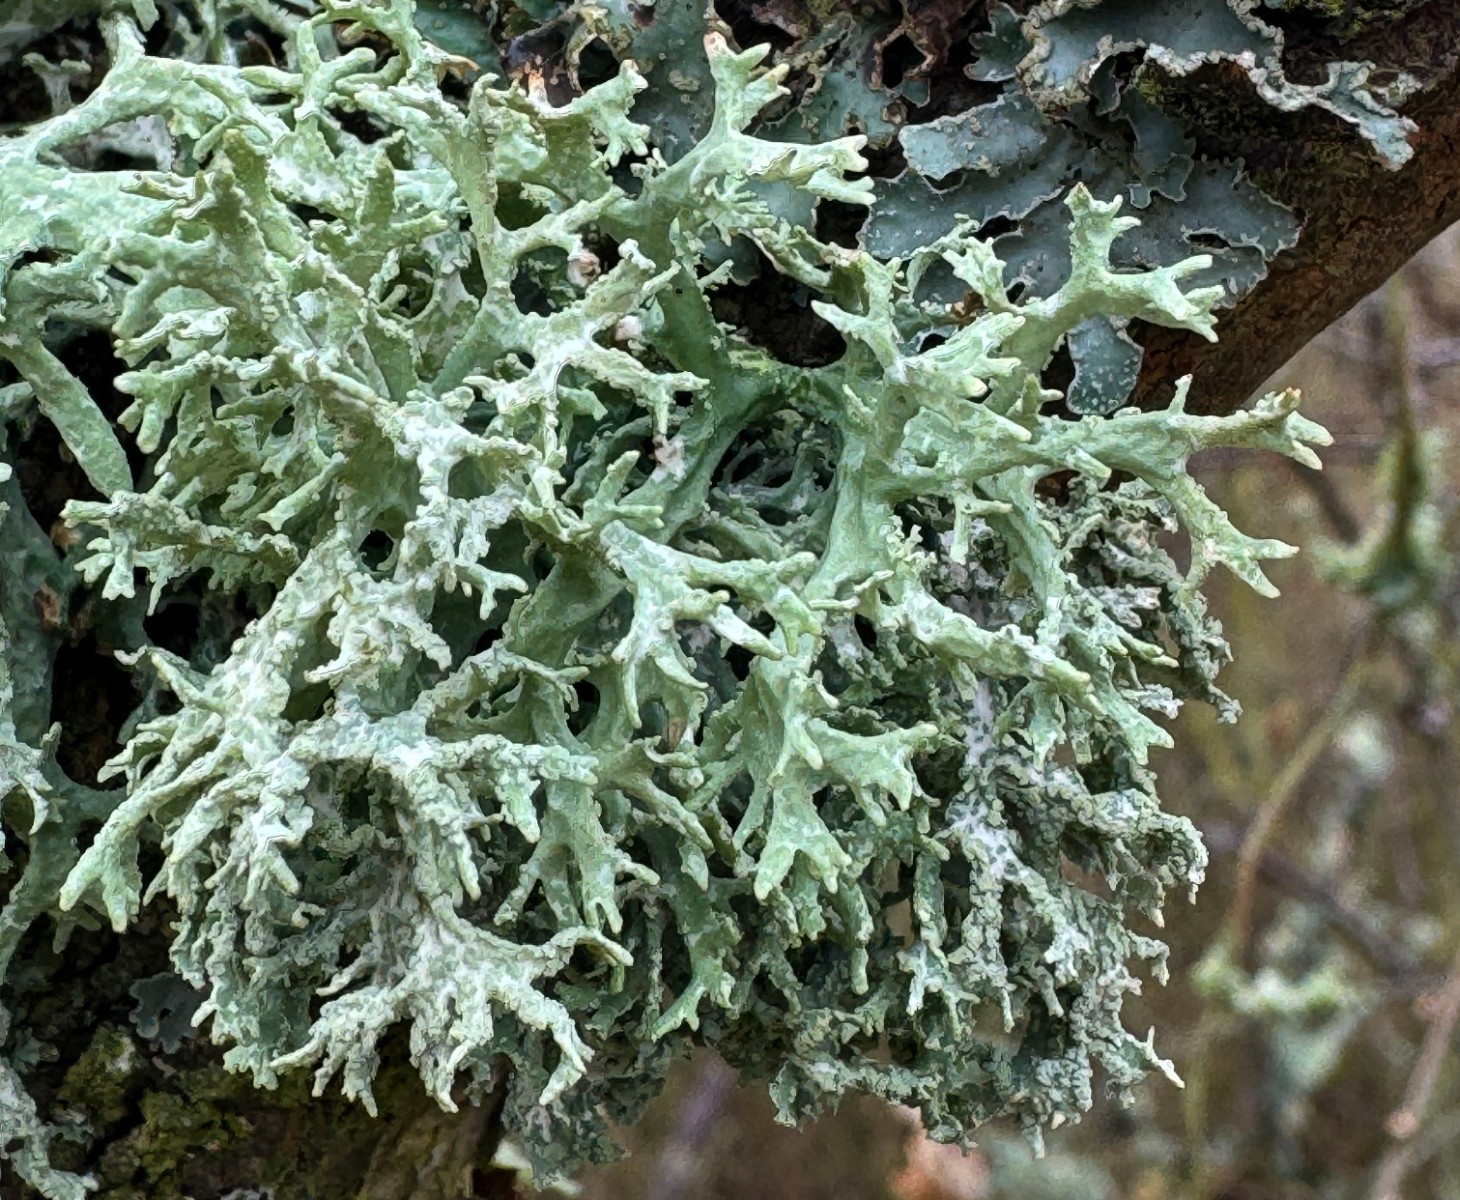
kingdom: Fungi
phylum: Ascomycota
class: Lecanoromycetes
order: Lecanorales
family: Parmeliaceae
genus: Evernia
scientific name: Evernia prunastri
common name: almindelig slåenlav
